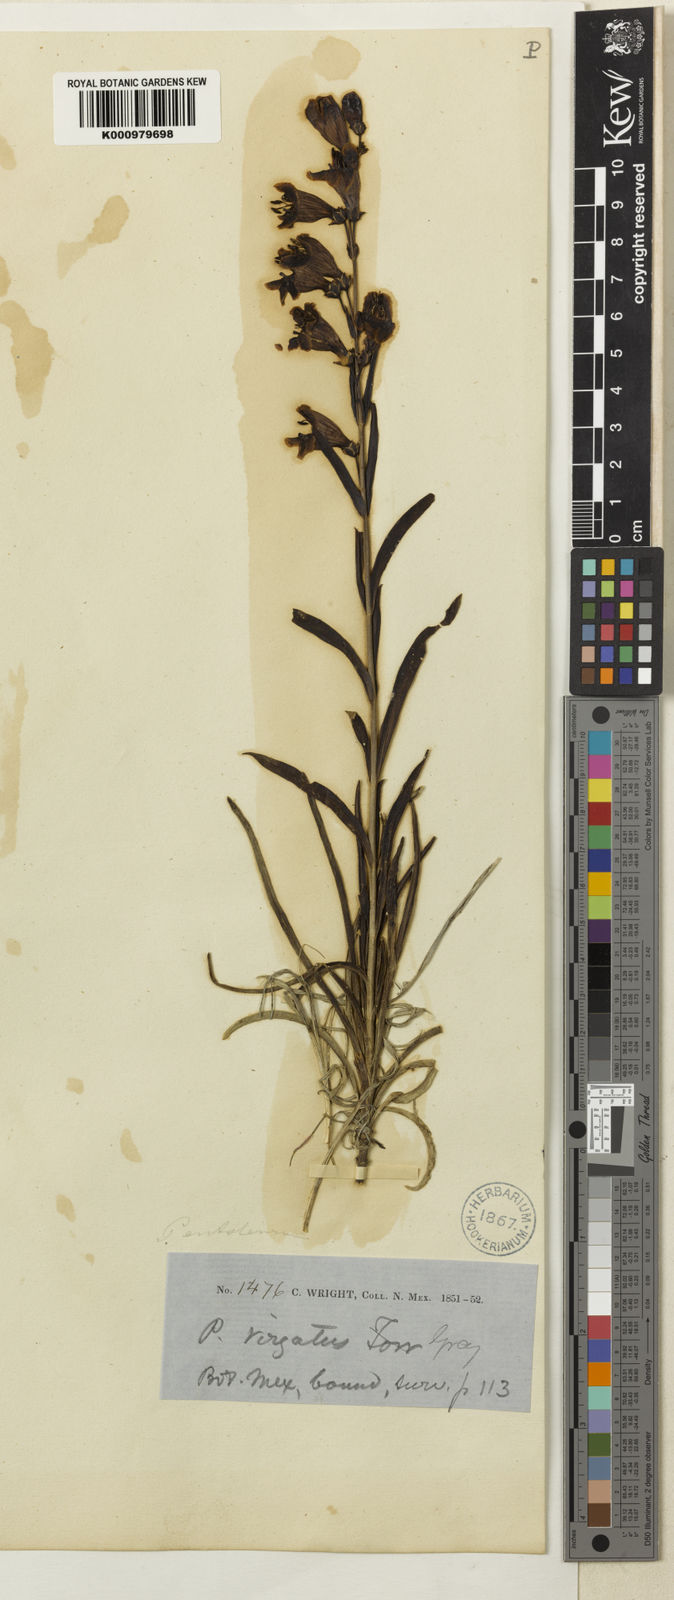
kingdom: Plantae
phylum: Tracheophyta
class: Magnoliopsida
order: Lamiales
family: Plantaginaceae
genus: Penstemon
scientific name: Penstemon virgatus
